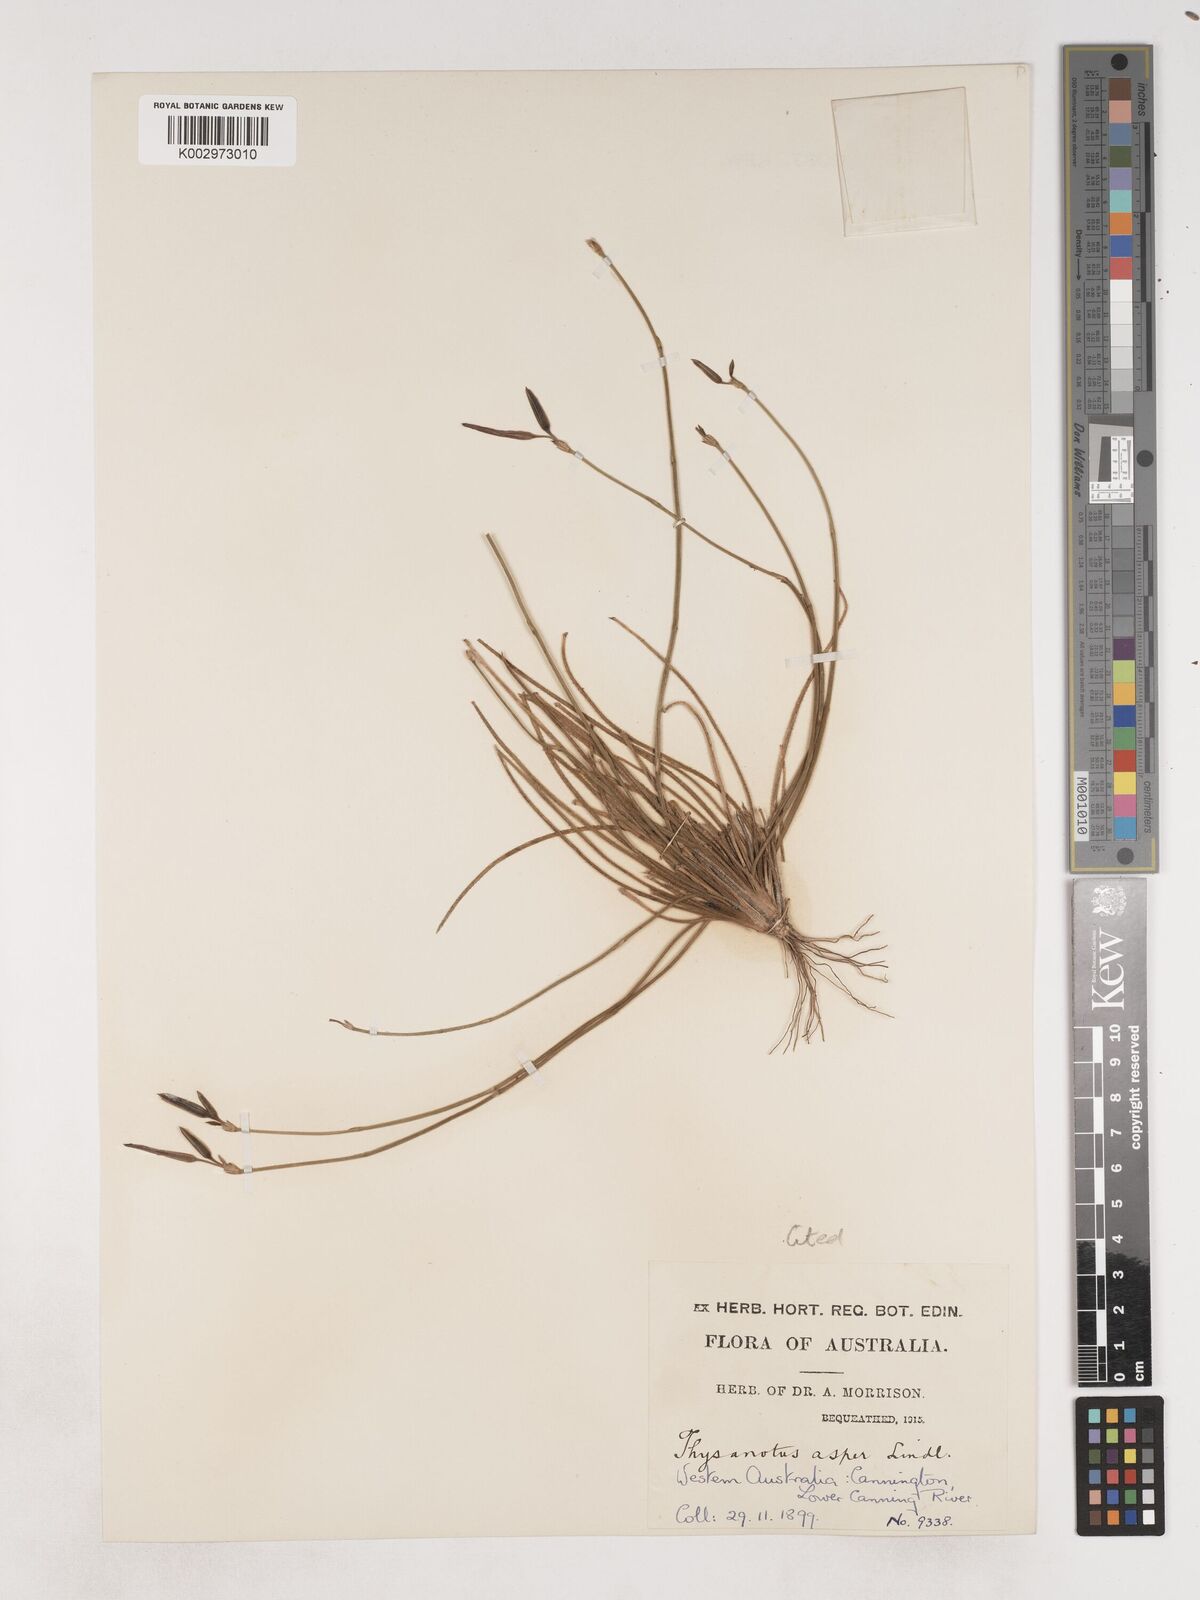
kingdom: Plantae
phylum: Tracheophyta
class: Liliopsida
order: Asparagales
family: Asparagaceae
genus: Thysanotus
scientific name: Thysanotus asper
